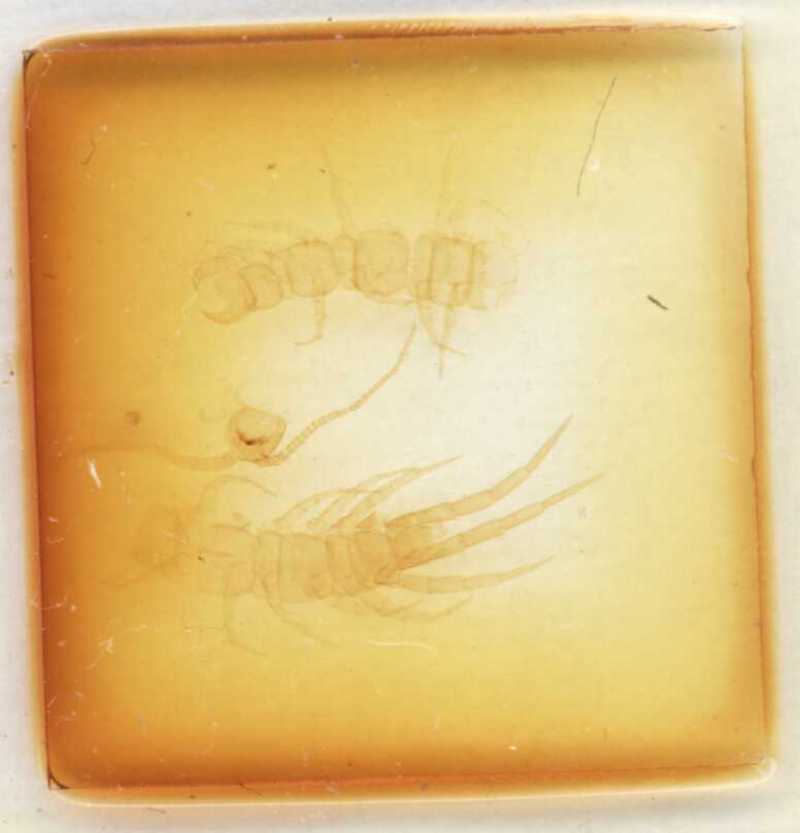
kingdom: Animalia
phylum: Arthropoda
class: Chilopoda
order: Lithobiomorpha
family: Lithobiidae
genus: Lithobius
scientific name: Lithobius melanops
